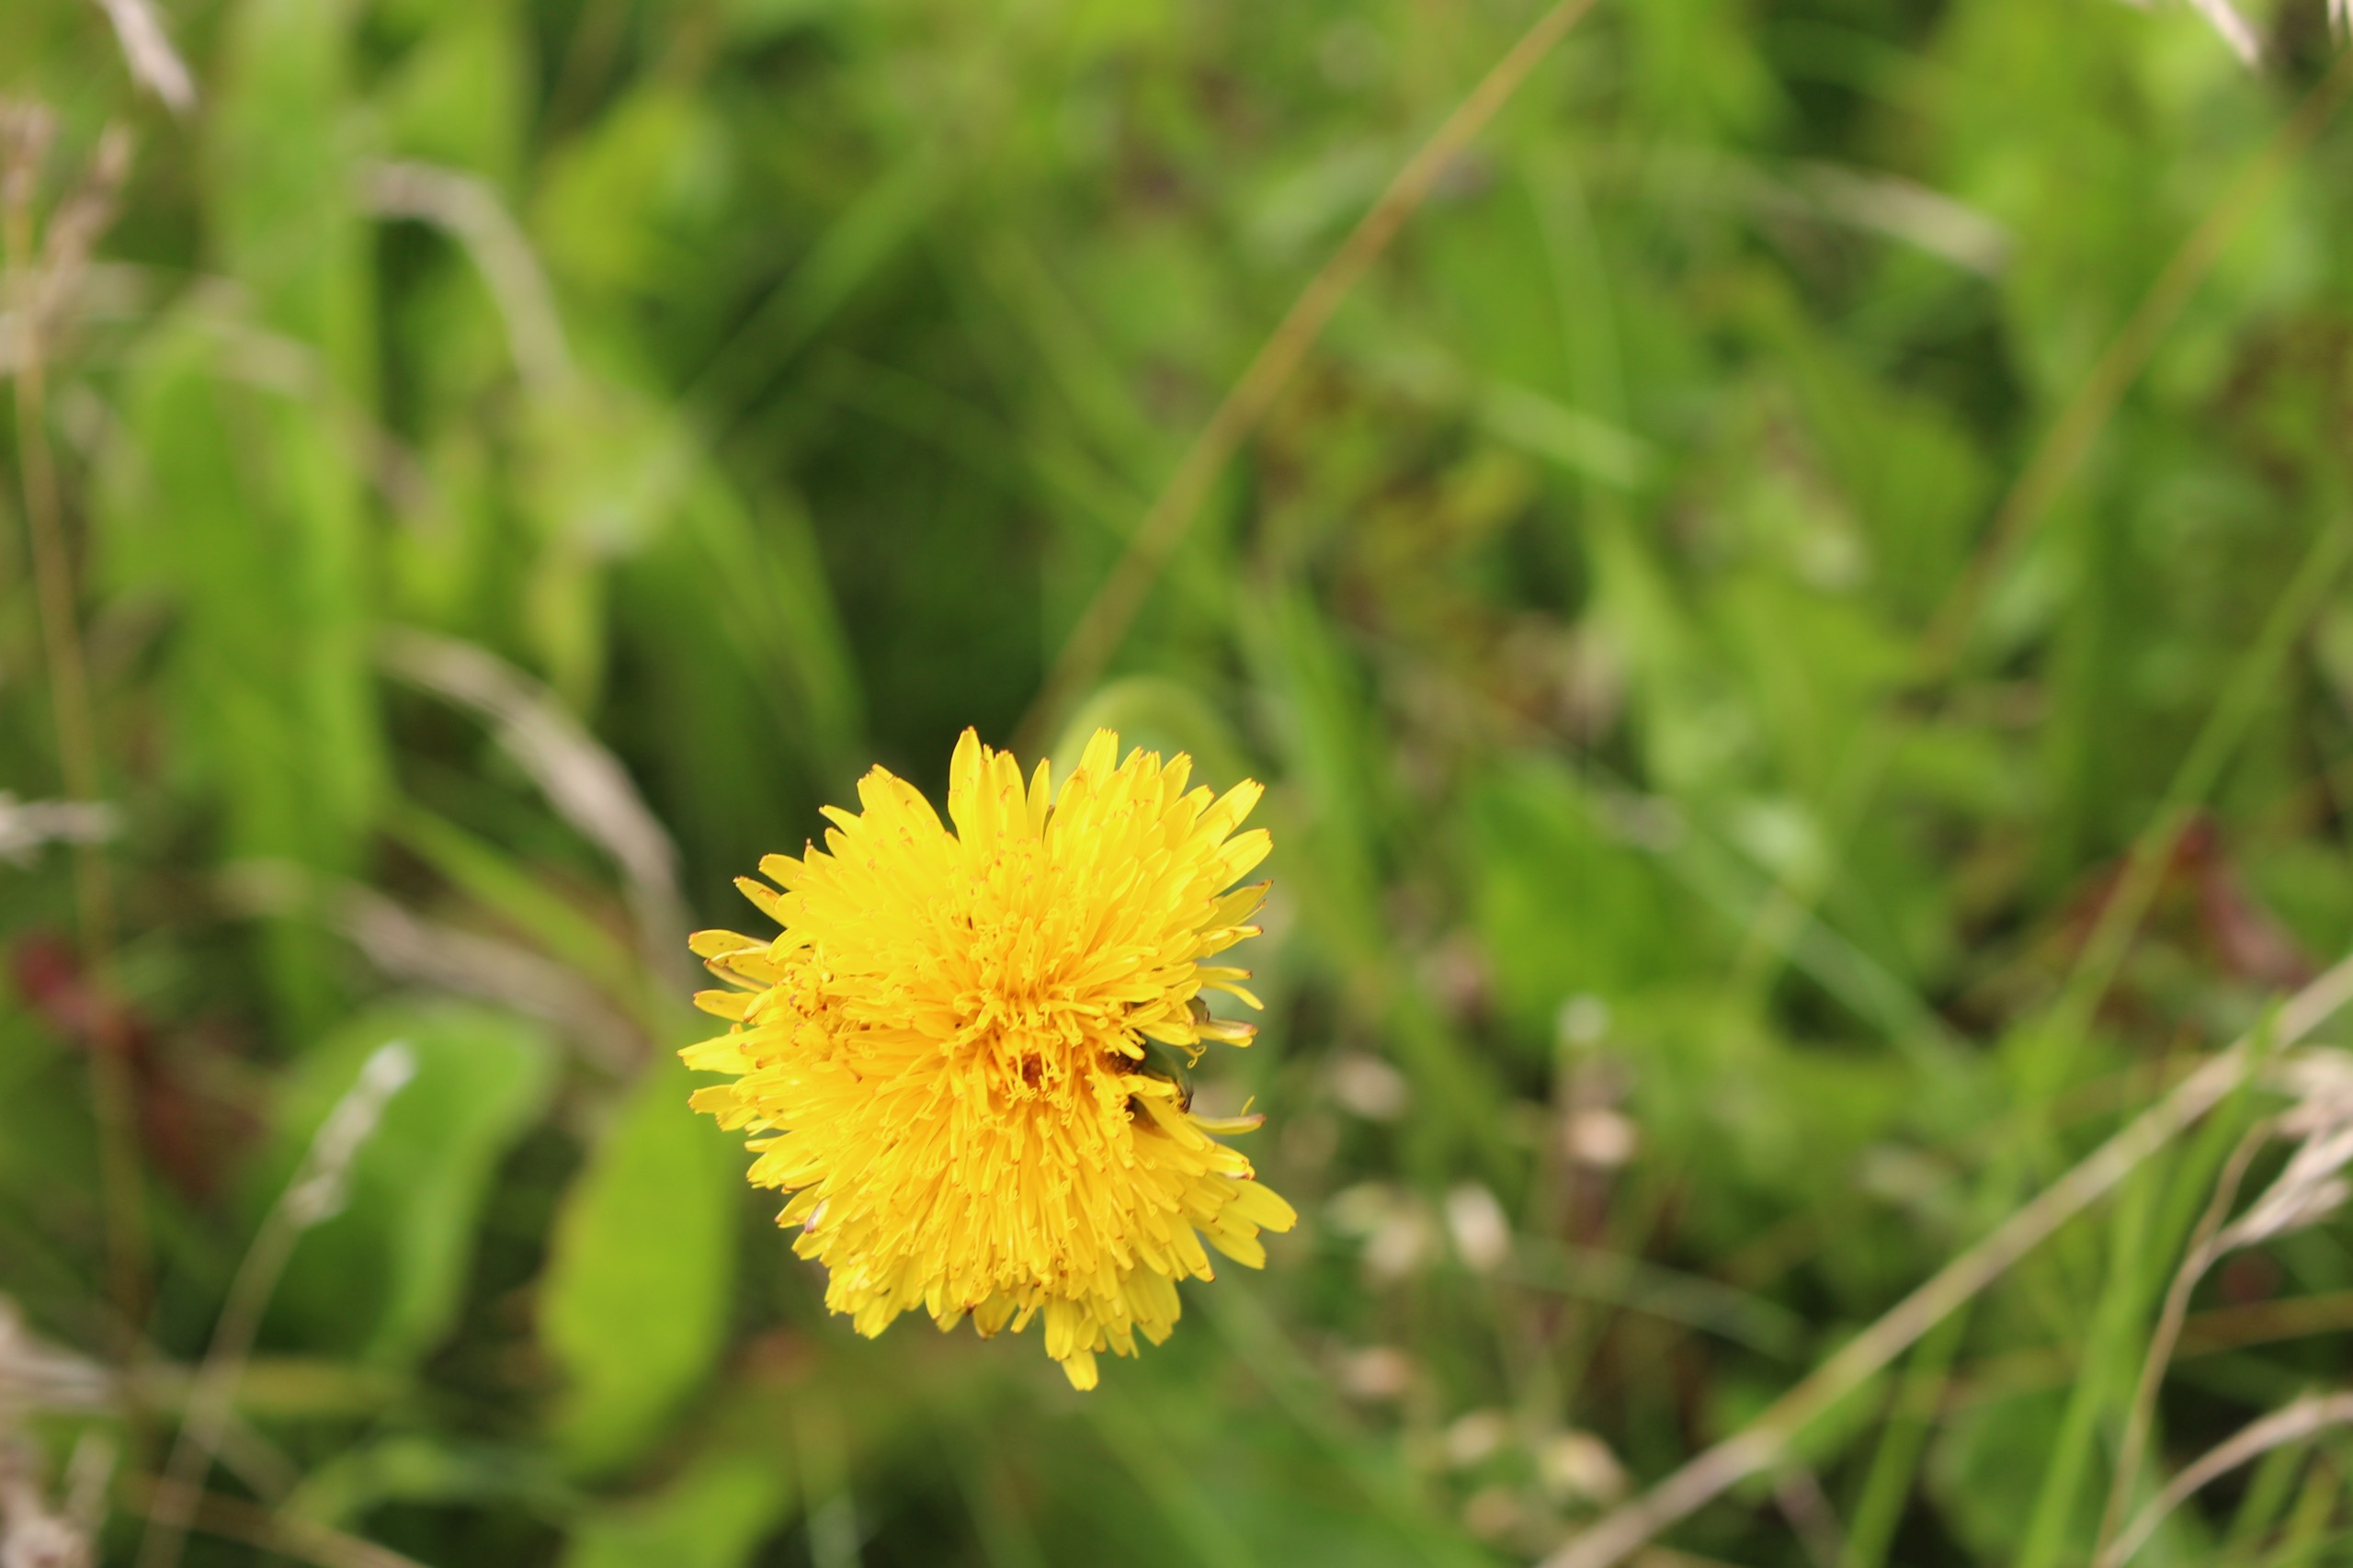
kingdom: Plantae
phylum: Tracheophyta
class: Magnoliopsida
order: Asterales
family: Asteraceae
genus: Taraxacum
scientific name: Taraxacum
